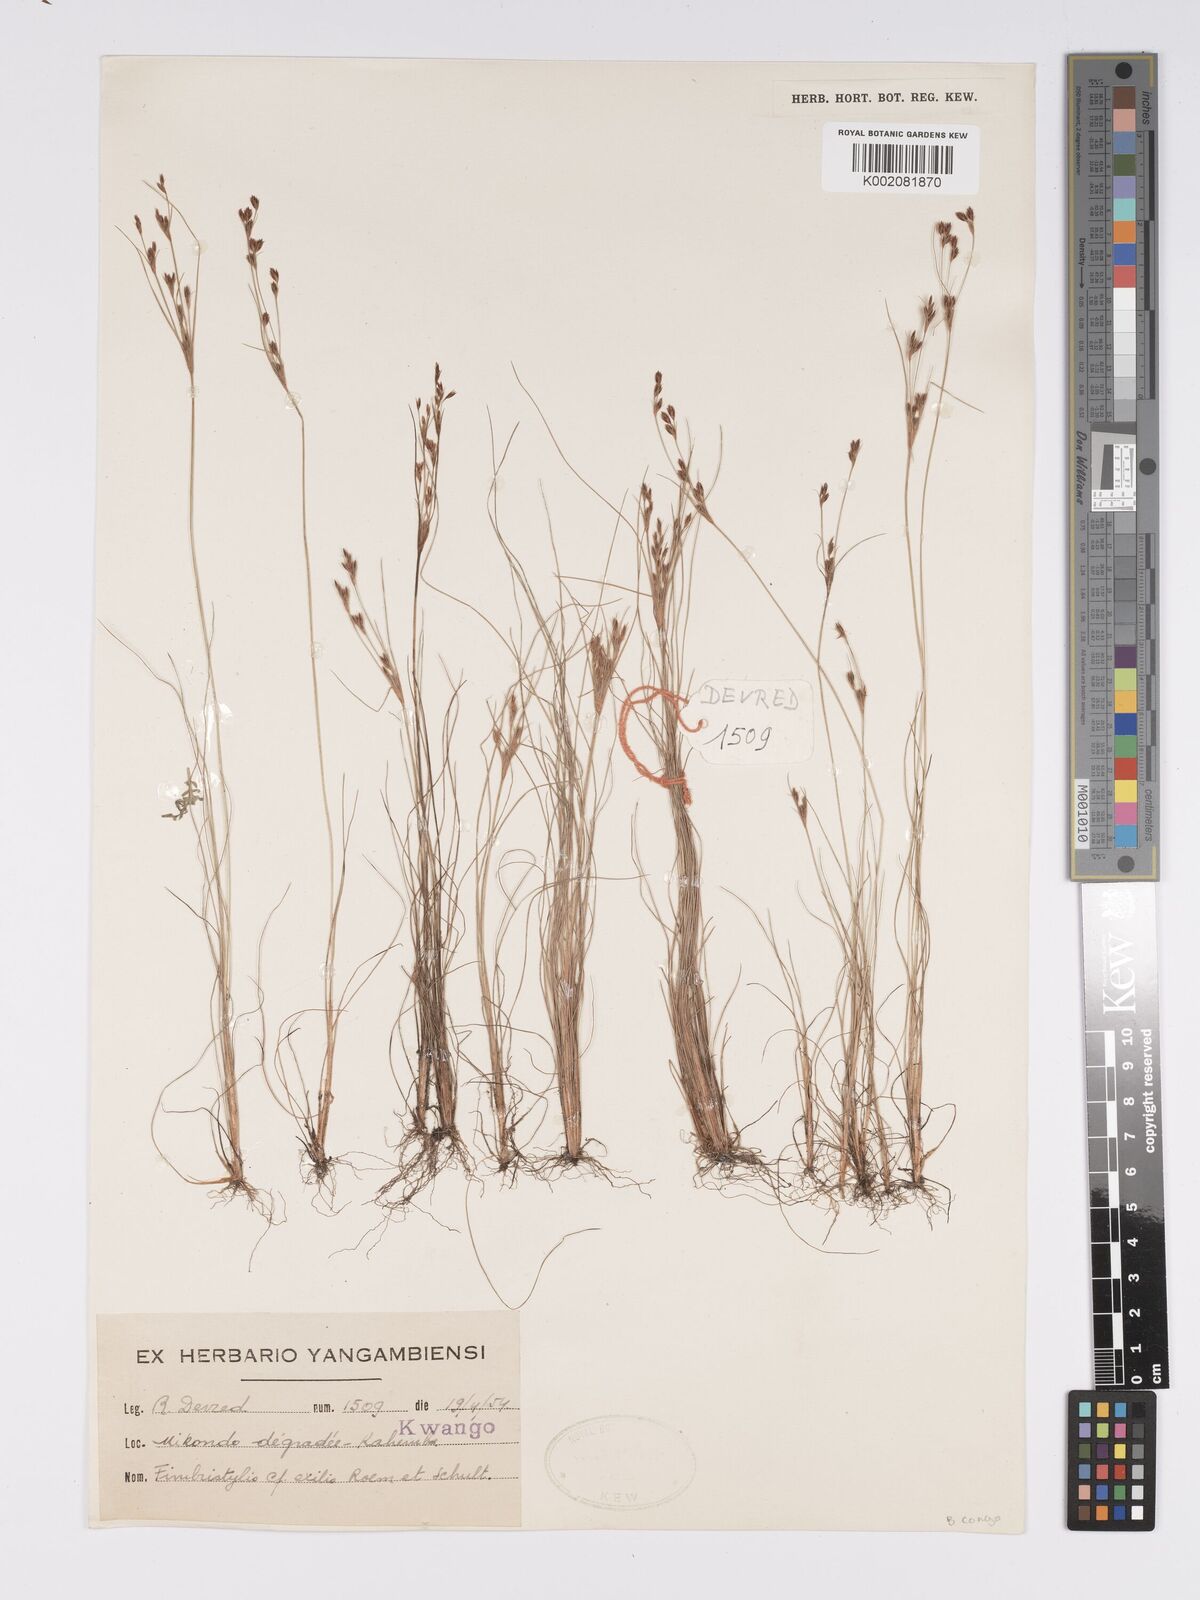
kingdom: Plantae
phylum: Tracheophyta
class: Liliopsida
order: Poales
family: Cyperaceae
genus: Bulbostylis
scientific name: Bulbostylis
